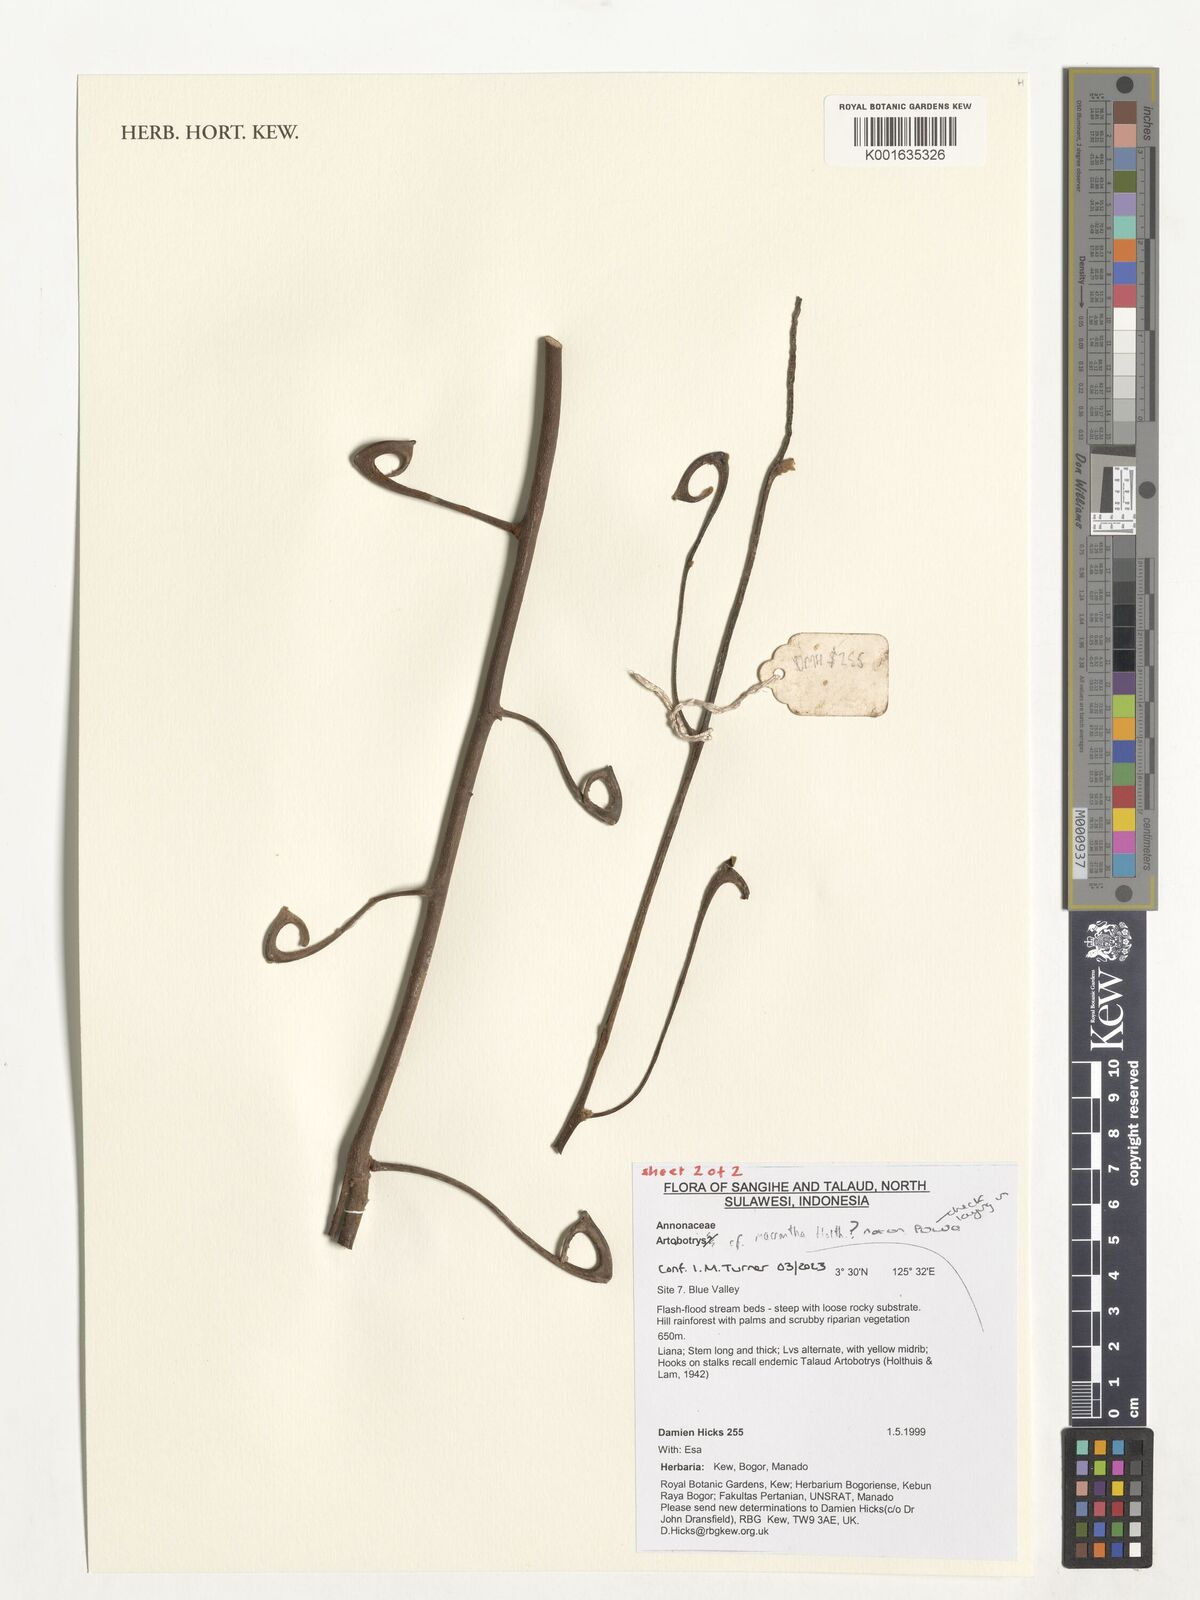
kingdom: Plantae
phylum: Tracheophyta
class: Magnoliopsida
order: Magnoliales
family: Annonaceae
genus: Artabotrys
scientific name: Artabotrys lanuginosus
